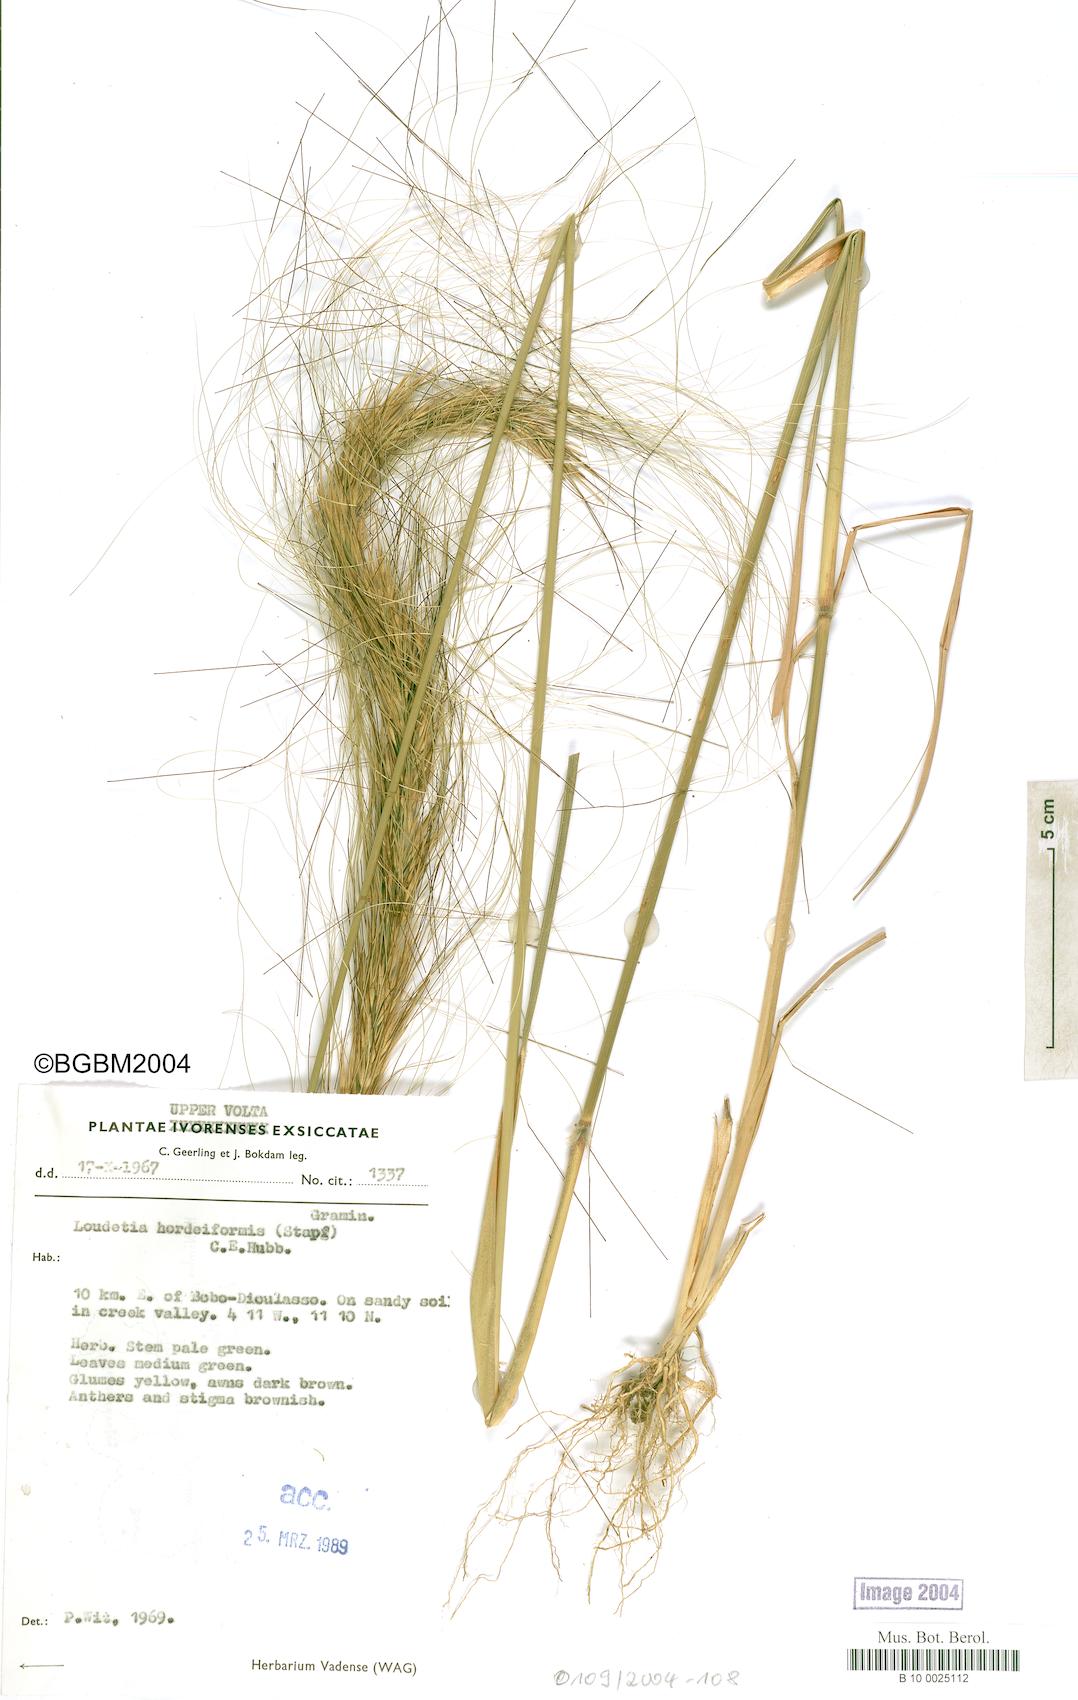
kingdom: Plantae
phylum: Tracheophyta
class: Liliopsida
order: Poales
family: Poaceae
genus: Loudetia
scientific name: Loudetia hordeiformis
